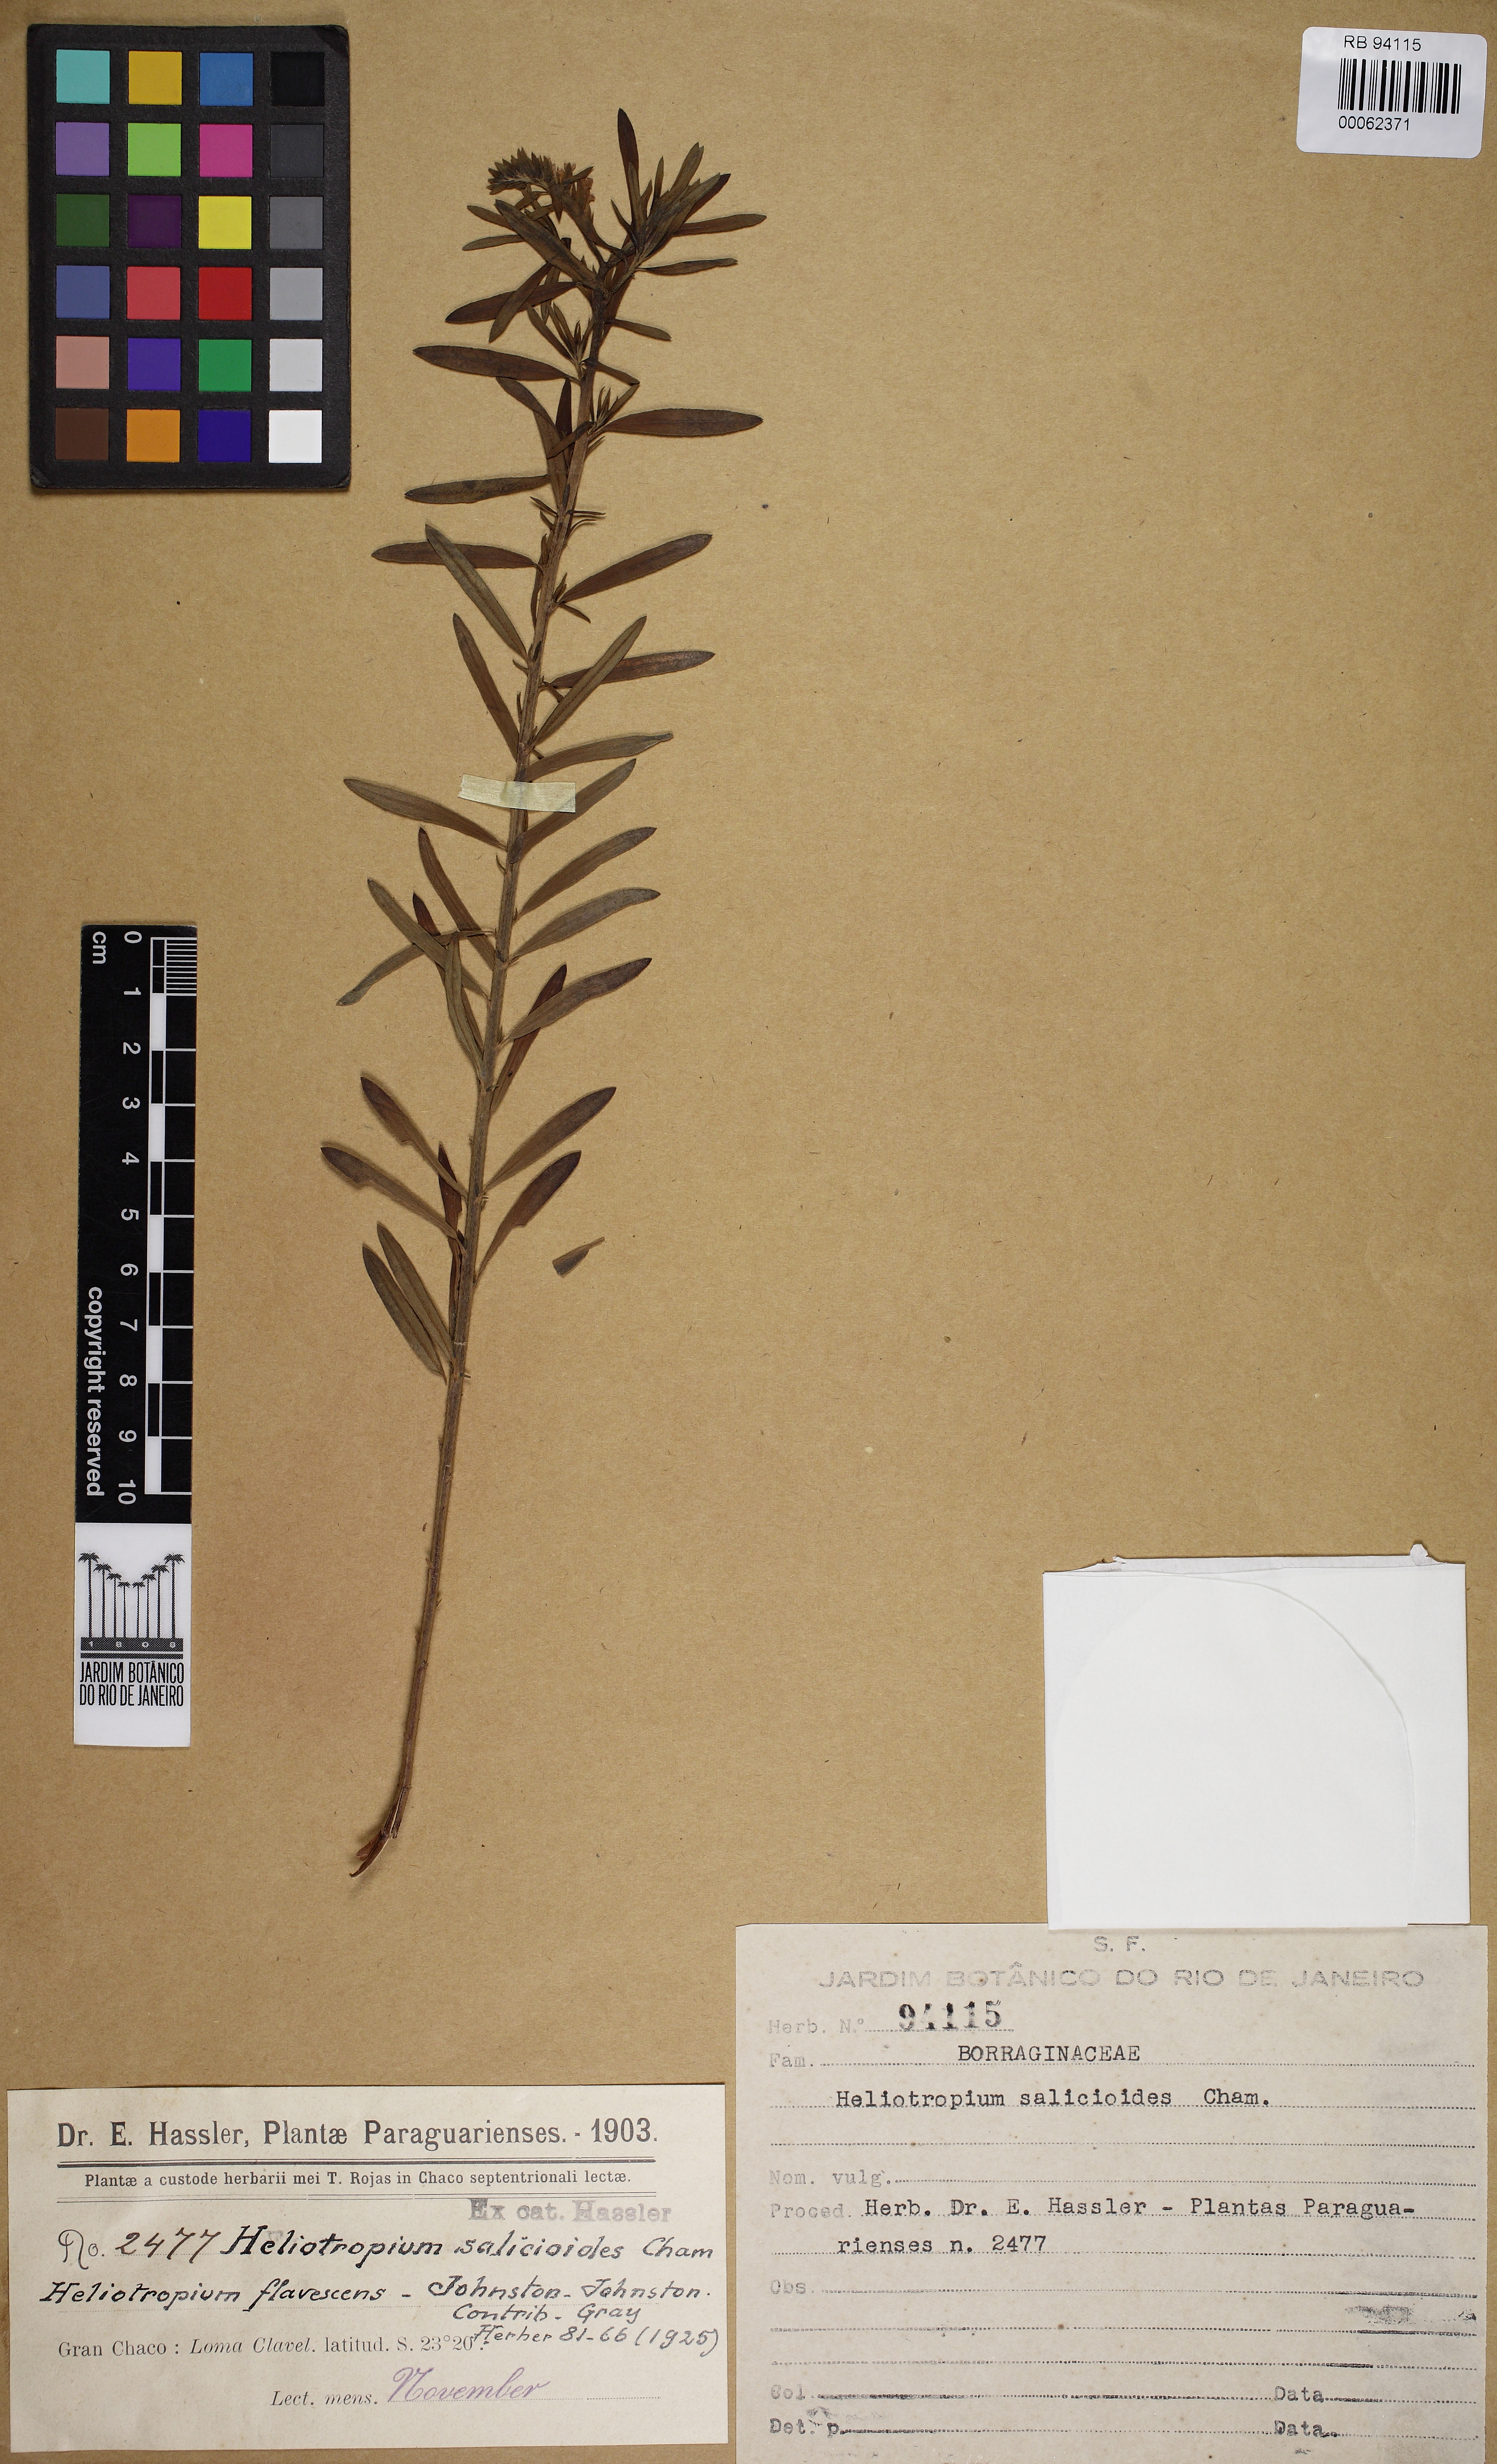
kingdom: Plantae
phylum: Tracheophyta
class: Magnoliopsida
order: Boraginales
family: Heliotropiaceae
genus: Euploca
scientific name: Euploca salicoides
